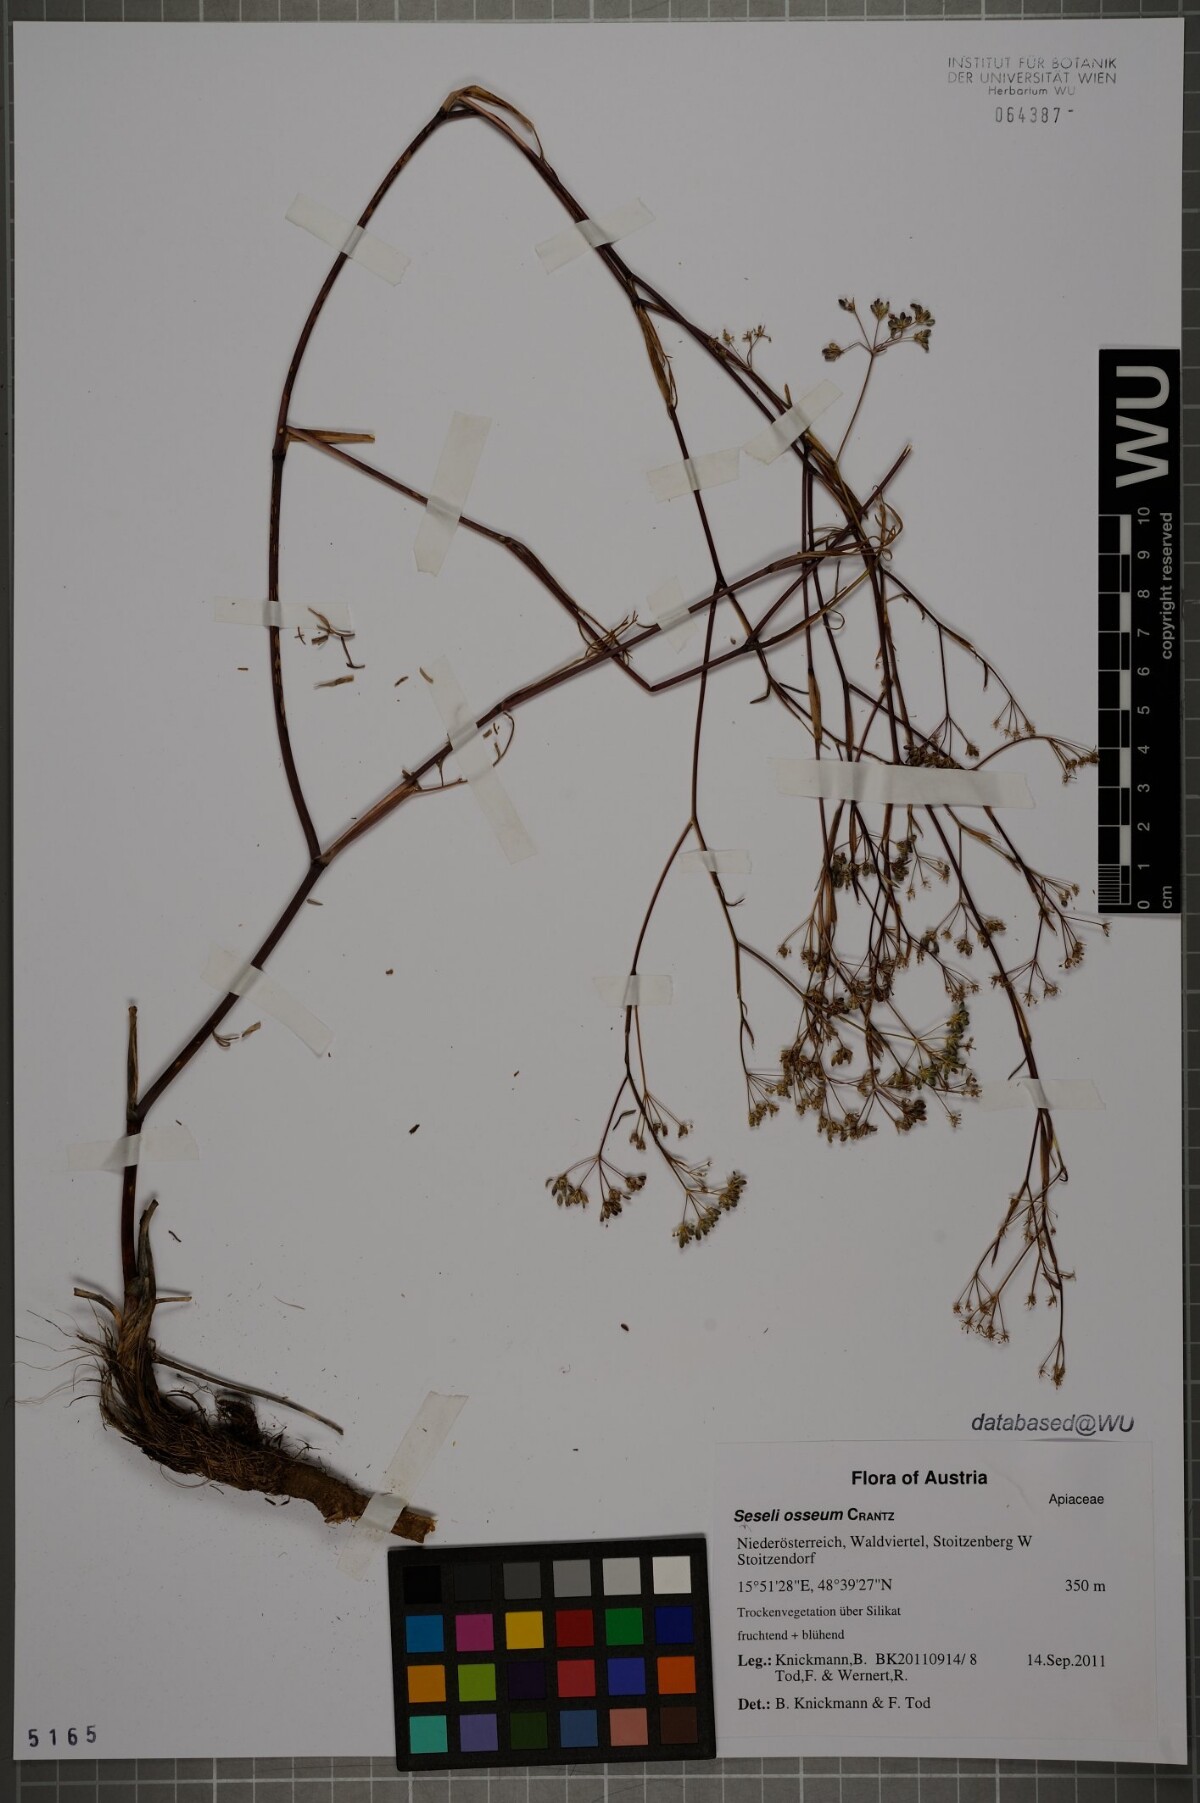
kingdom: Plantae
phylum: Tracheophyta
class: Magnoliopsida
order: Apiales
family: Apiaceae
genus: Seseli
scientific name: Seseli osseum
